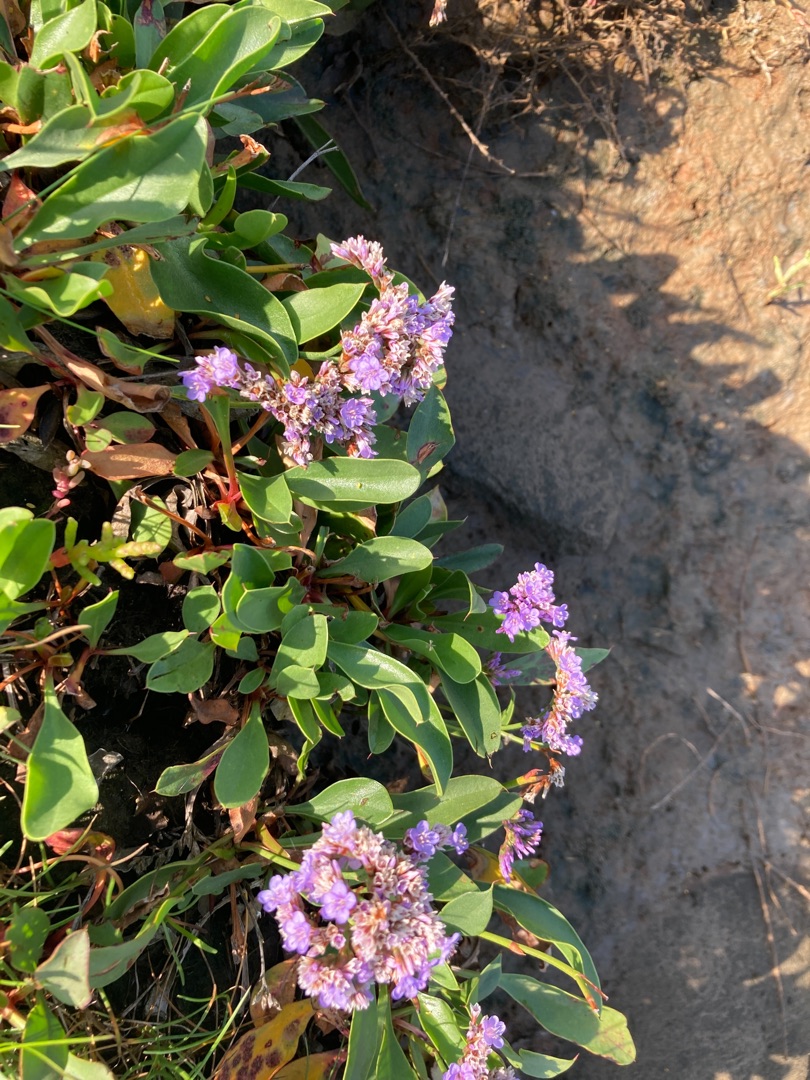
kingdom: Plantae
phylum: Tracheophyta
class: Magnoliopsida
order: Caryophyllales
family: Plumbaginaceae
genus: Limonium
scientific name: Limonium vulgare
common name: Tætblomstret hindebæger
